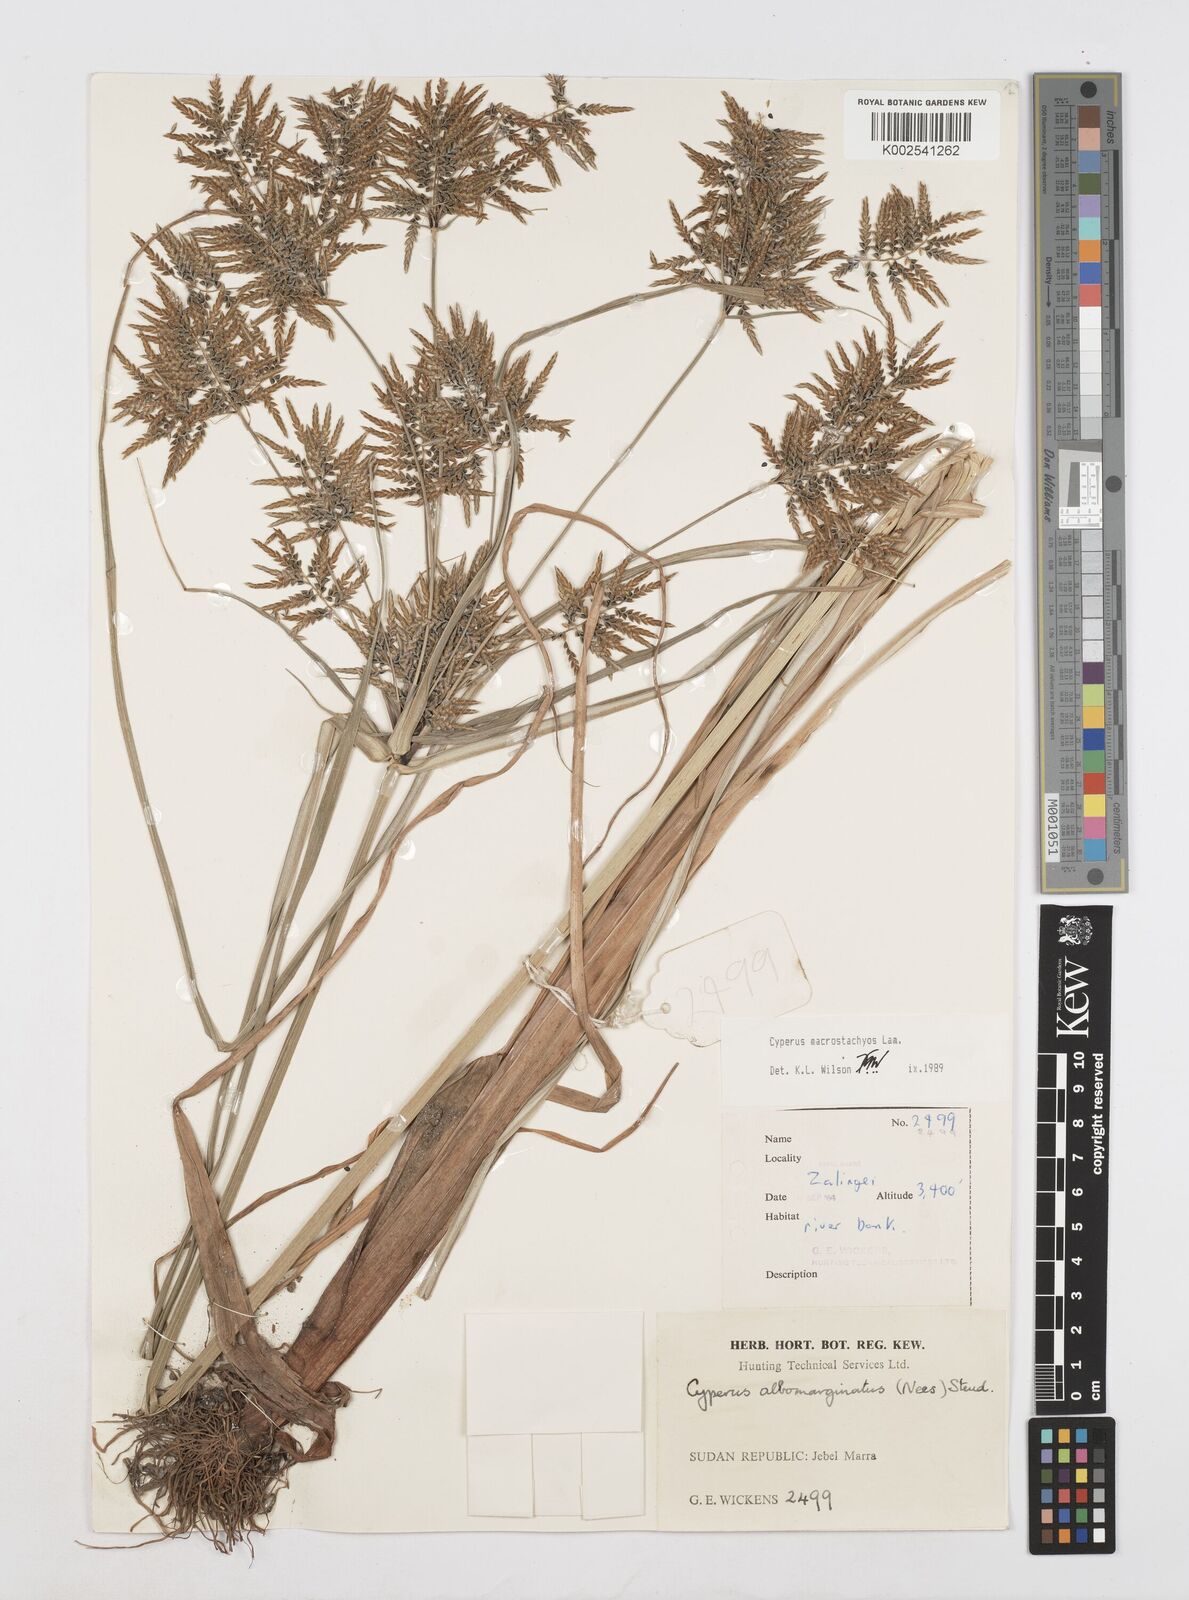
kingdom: Plantae
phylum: Tracheophyta
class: Liliopsida
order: Poales
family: Cyperaceae
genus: Cyperus
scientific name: Cyperus macrostachyos
